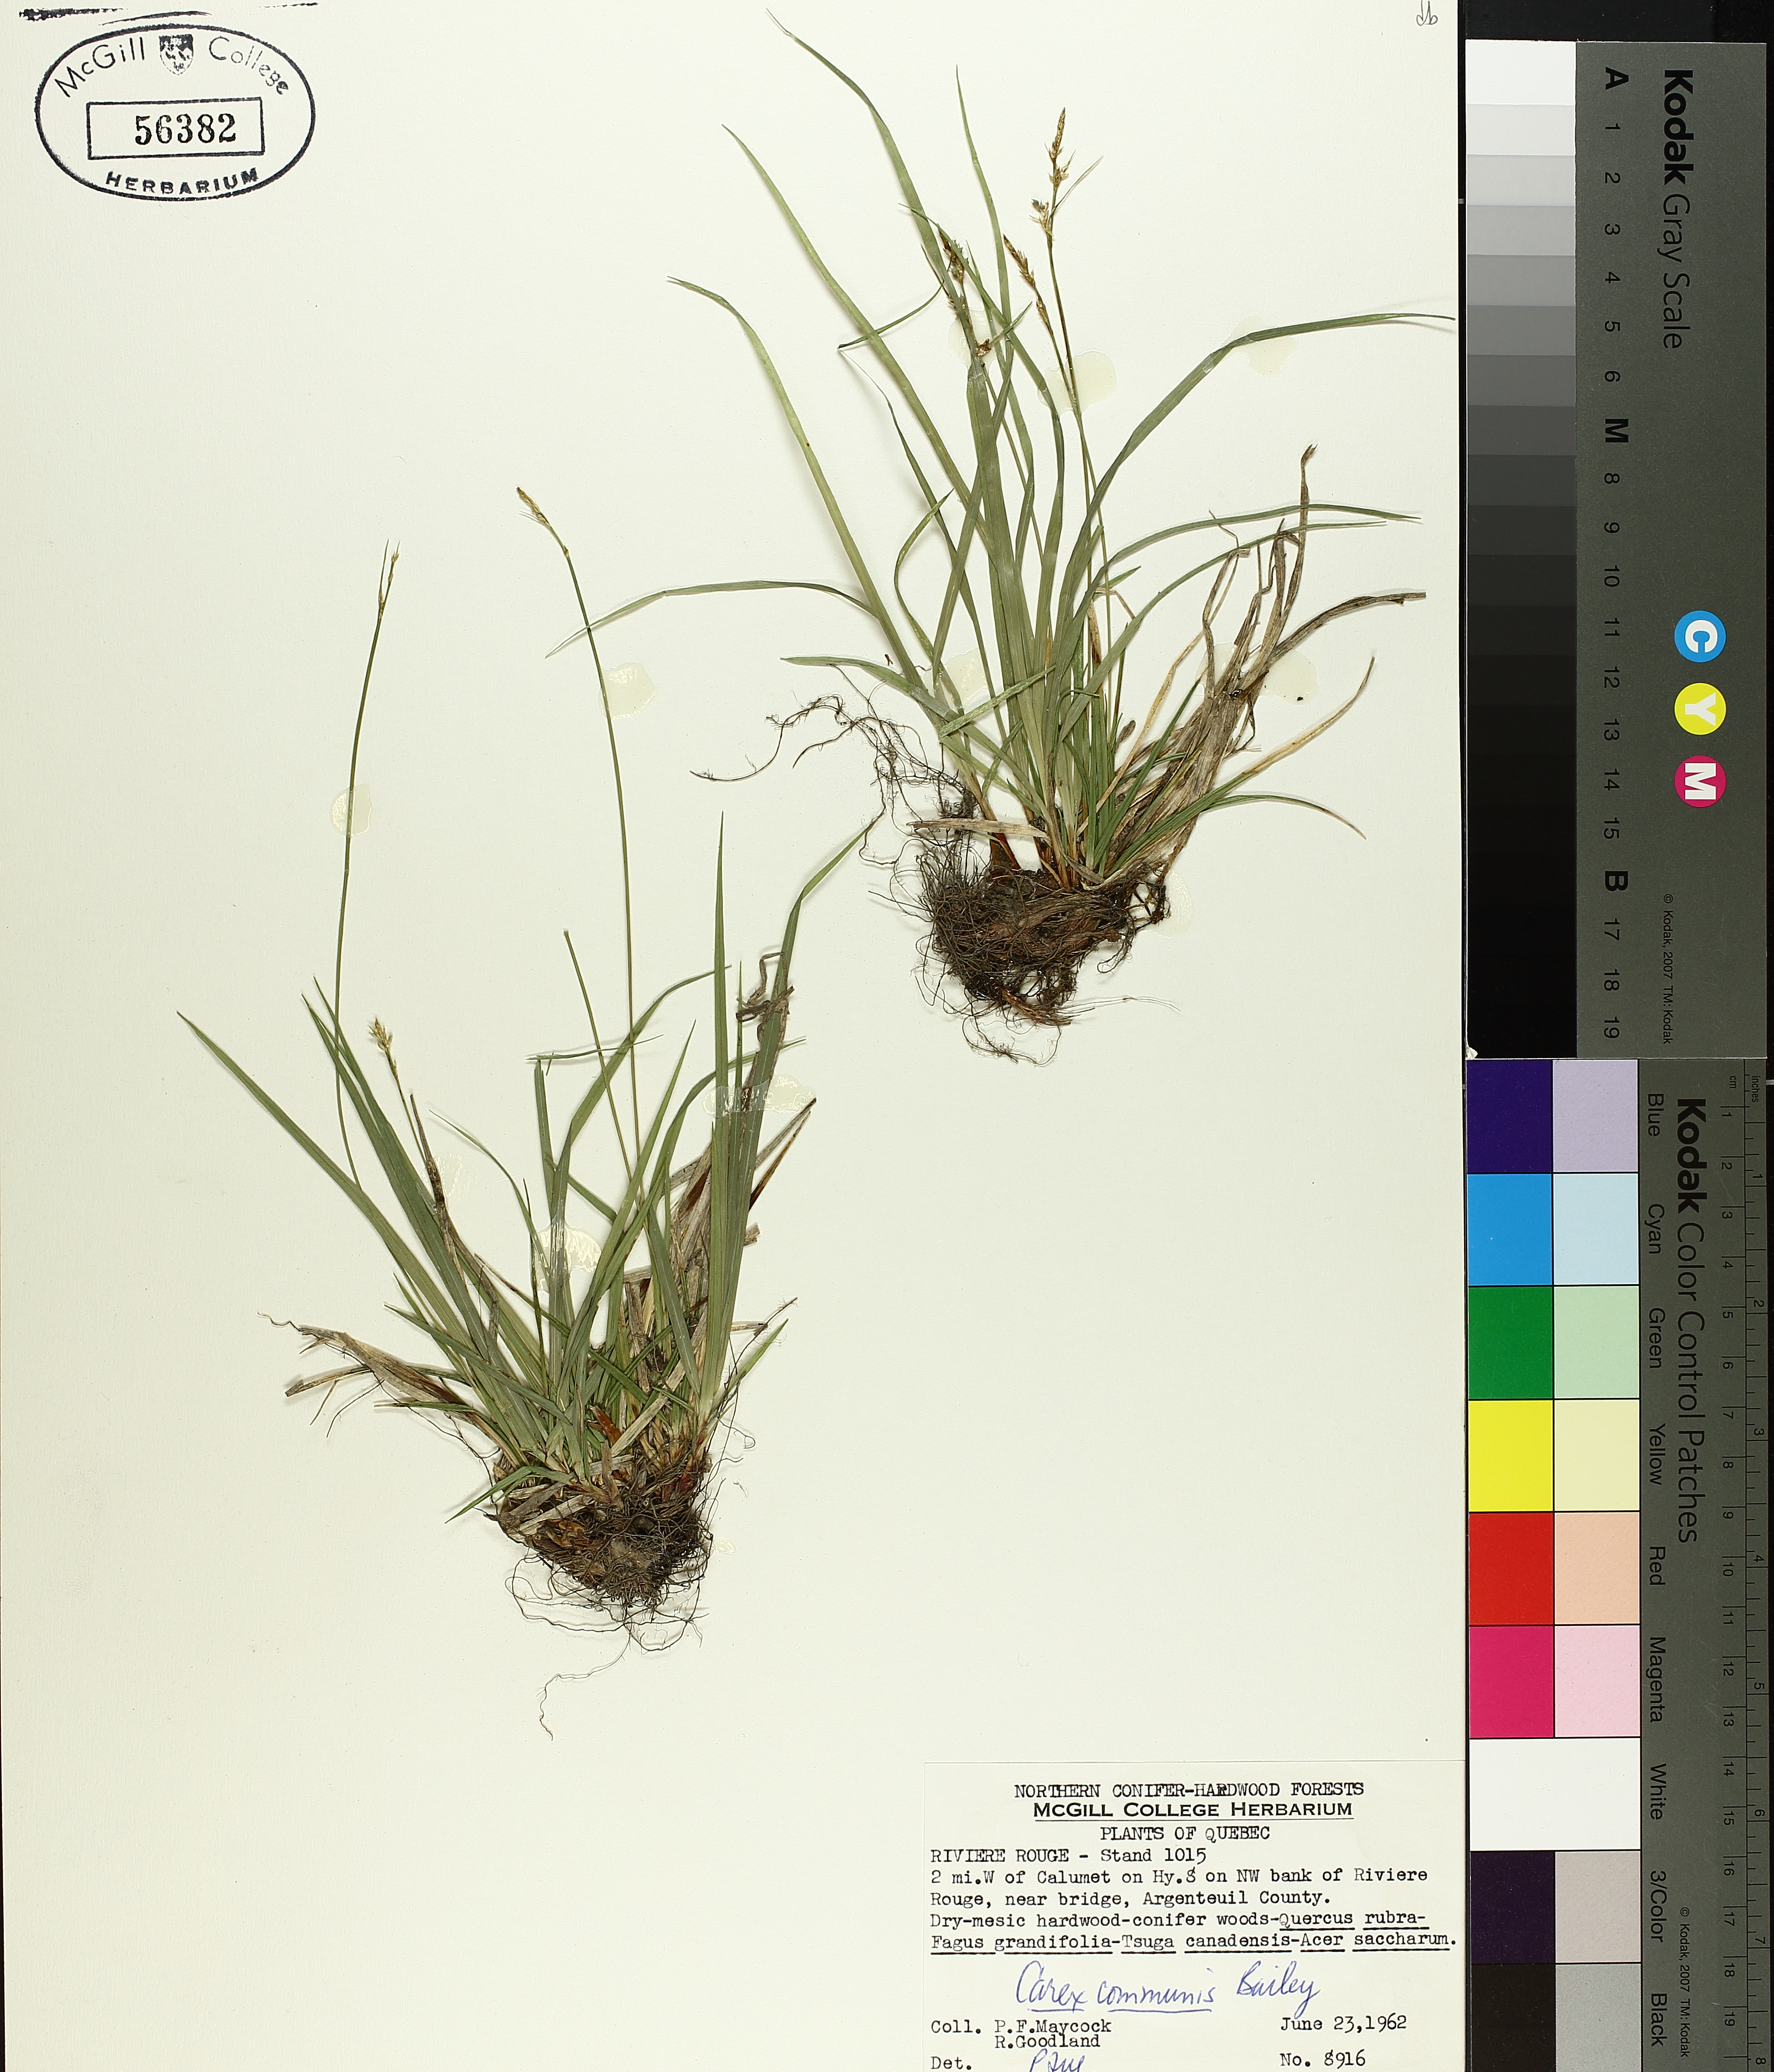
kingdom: Plantae
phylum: Tracheophyta
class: Liliopsida
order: Poales
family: Cyperaceae
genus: Carex
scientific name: Carex communis
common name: Colonial oak sedge
